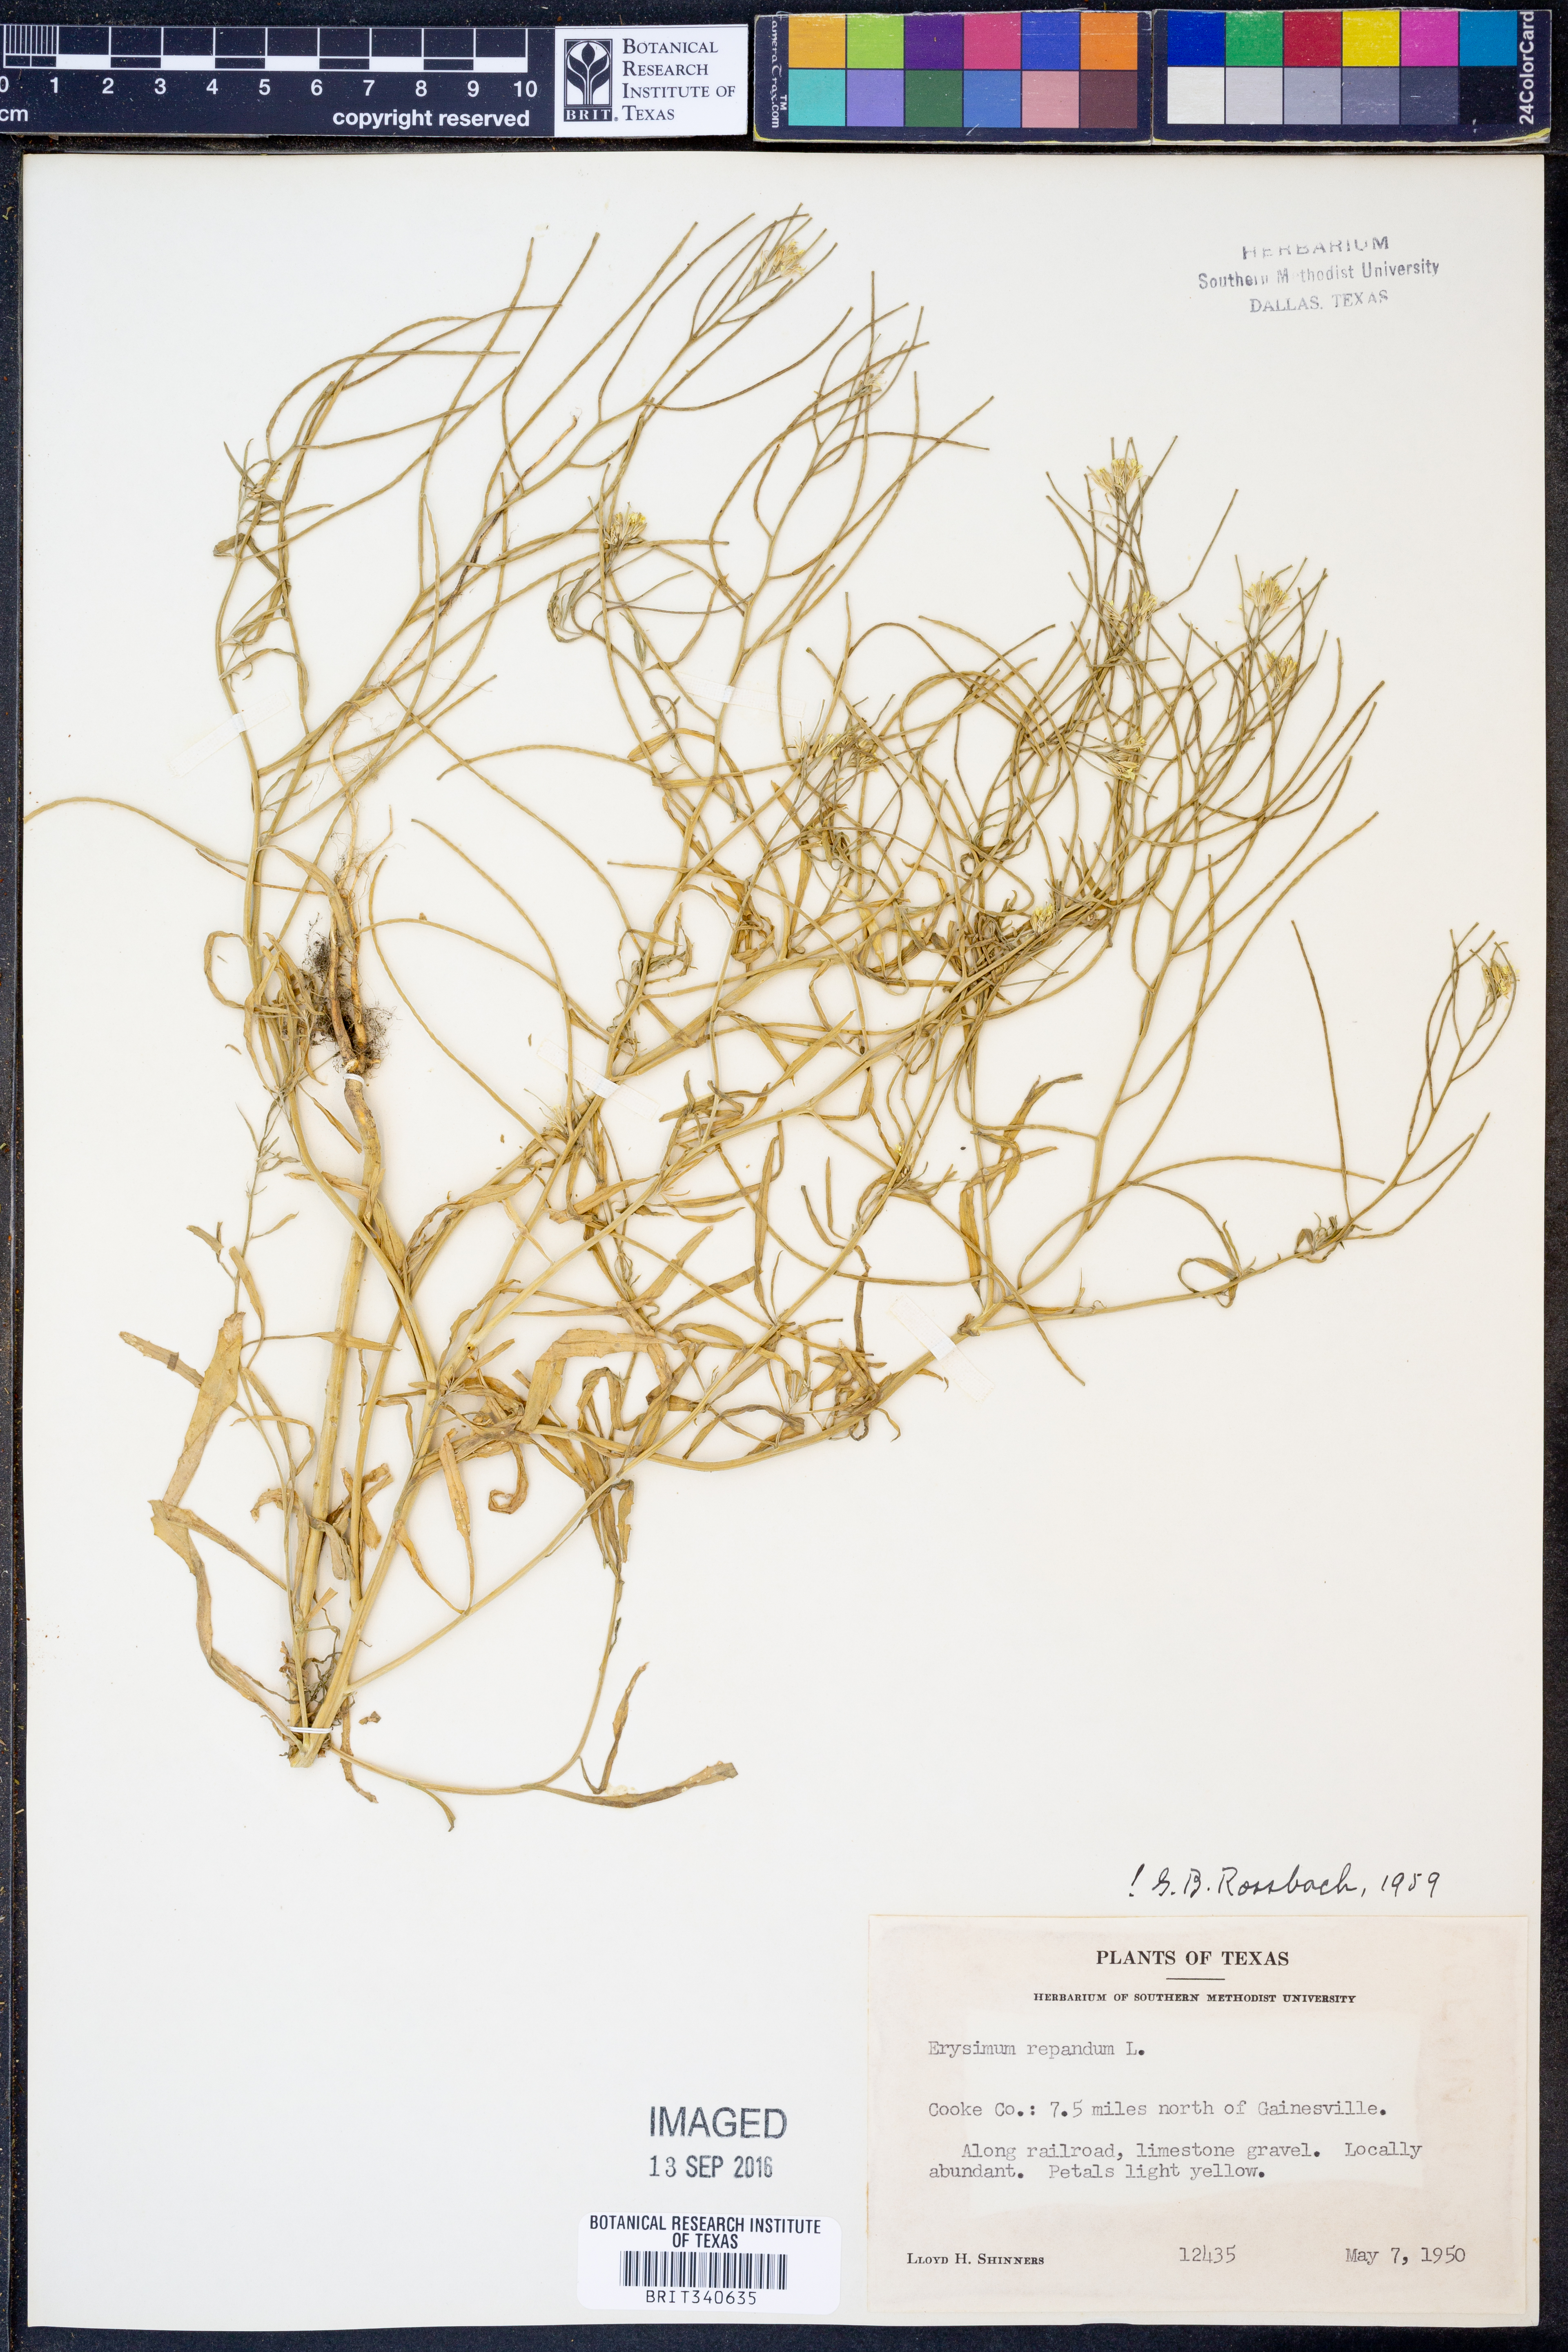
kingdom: Plantae
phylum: Tracheophyta
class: Magnoliopsida
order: Brassicales
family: Brassicaceae
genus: Erysimum
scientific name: Erysimum repandum
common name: Spreading wallflower
